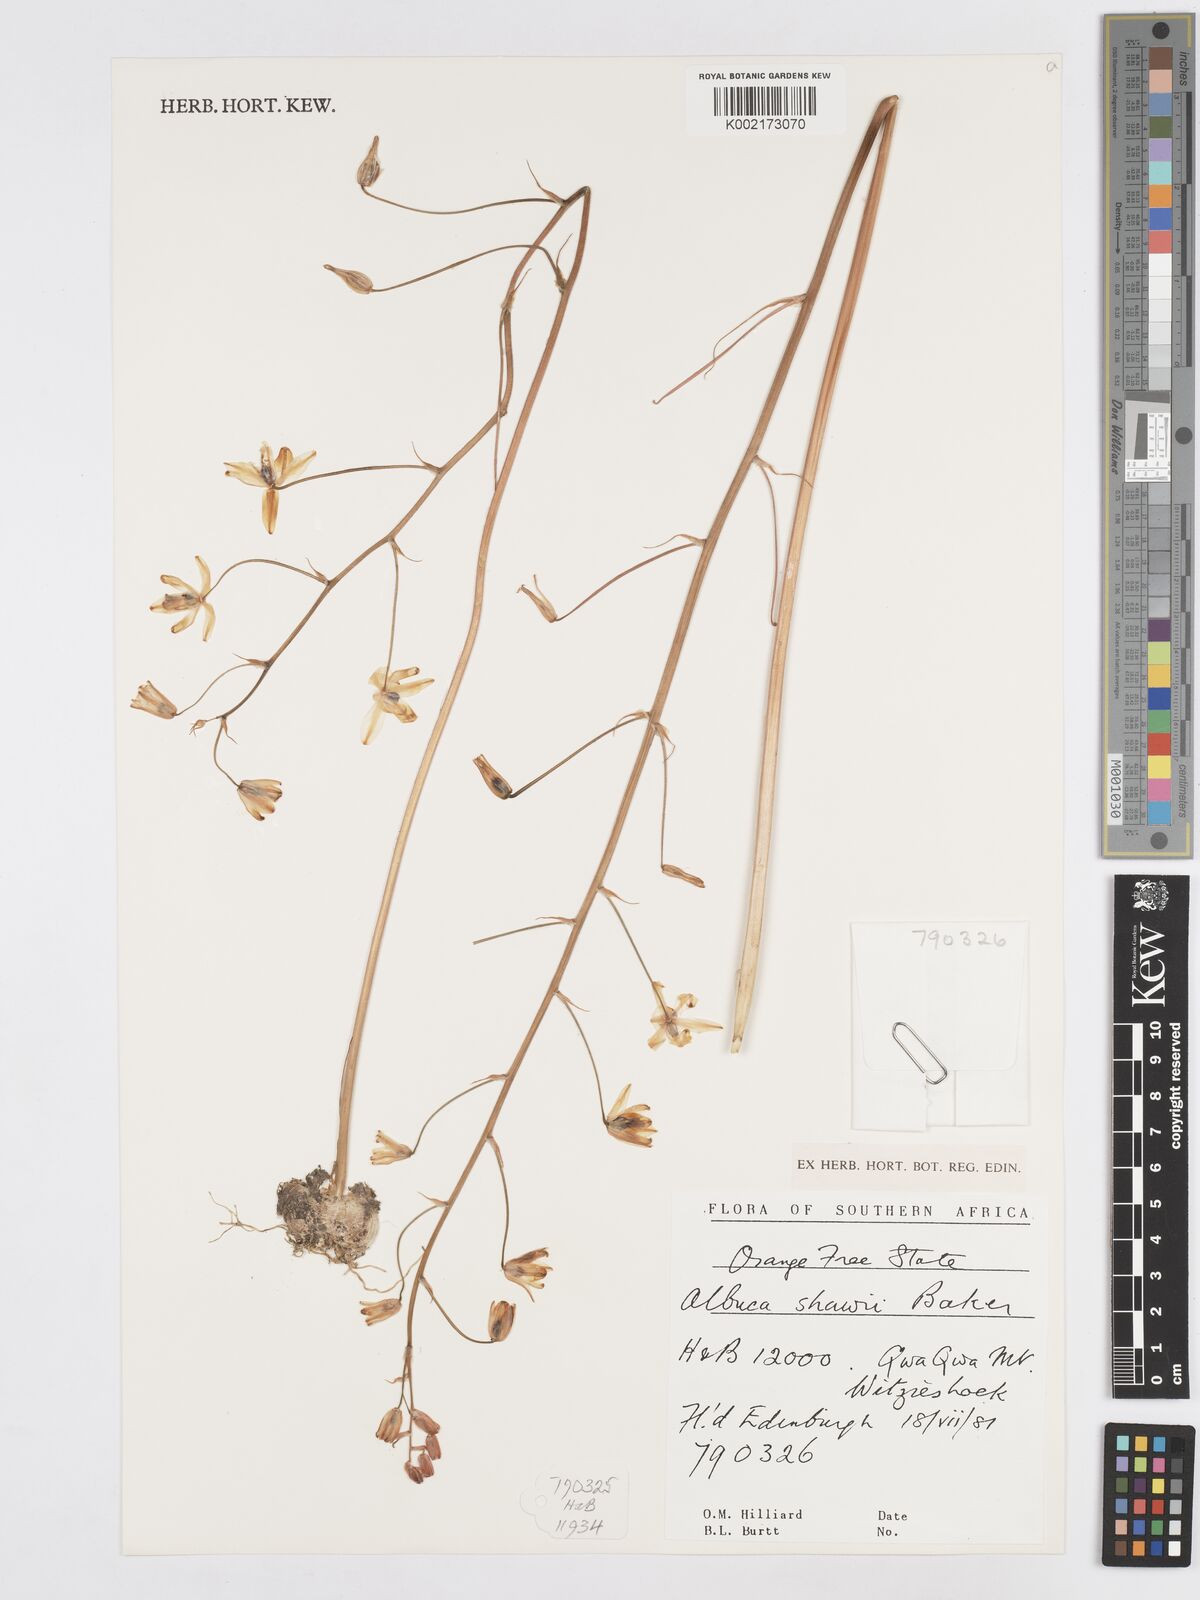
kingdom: Plantae
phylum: Tracheophyta
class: Liliopsida
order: Asparagales
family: Asparagaceae
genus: Albuca
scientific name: Albuca shawii
